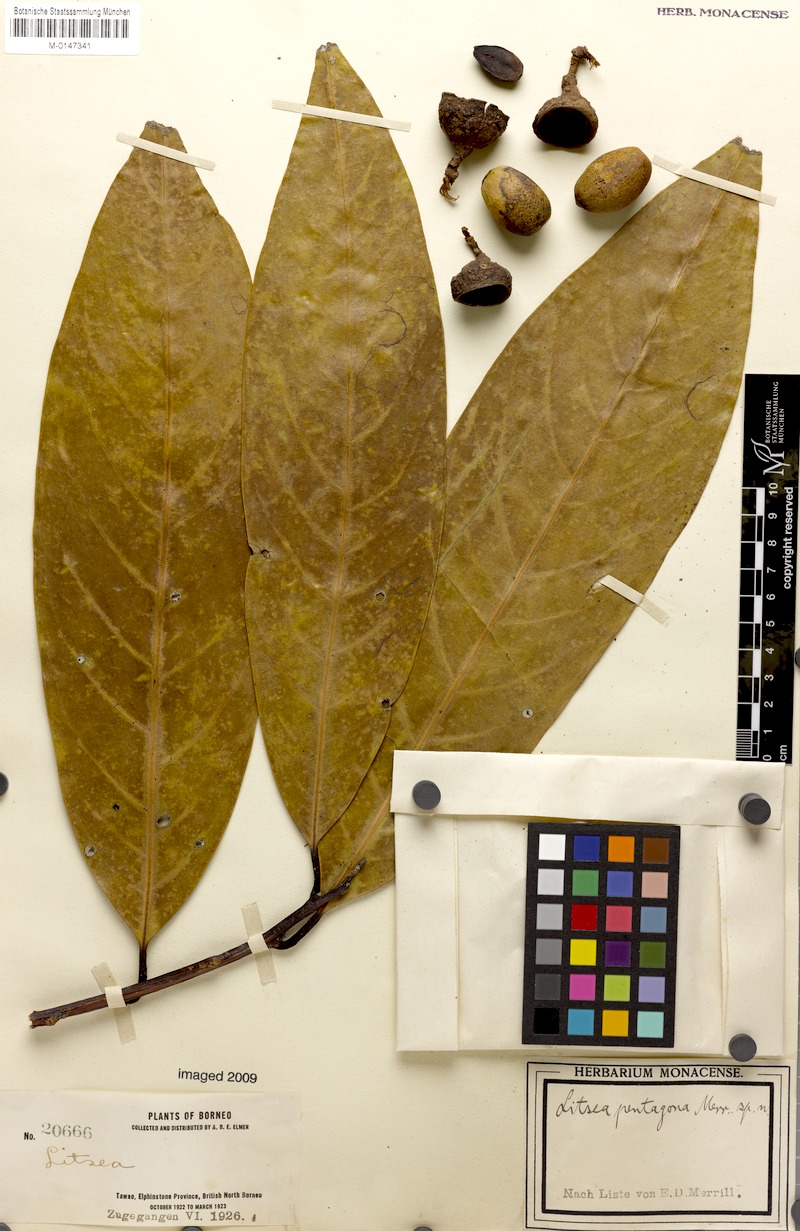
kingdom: Plantae
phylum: Tracheophyta
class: Magnoliopsida
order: Laurales
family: Lauraceae
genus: Litsea
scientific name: Litsea pentagona
